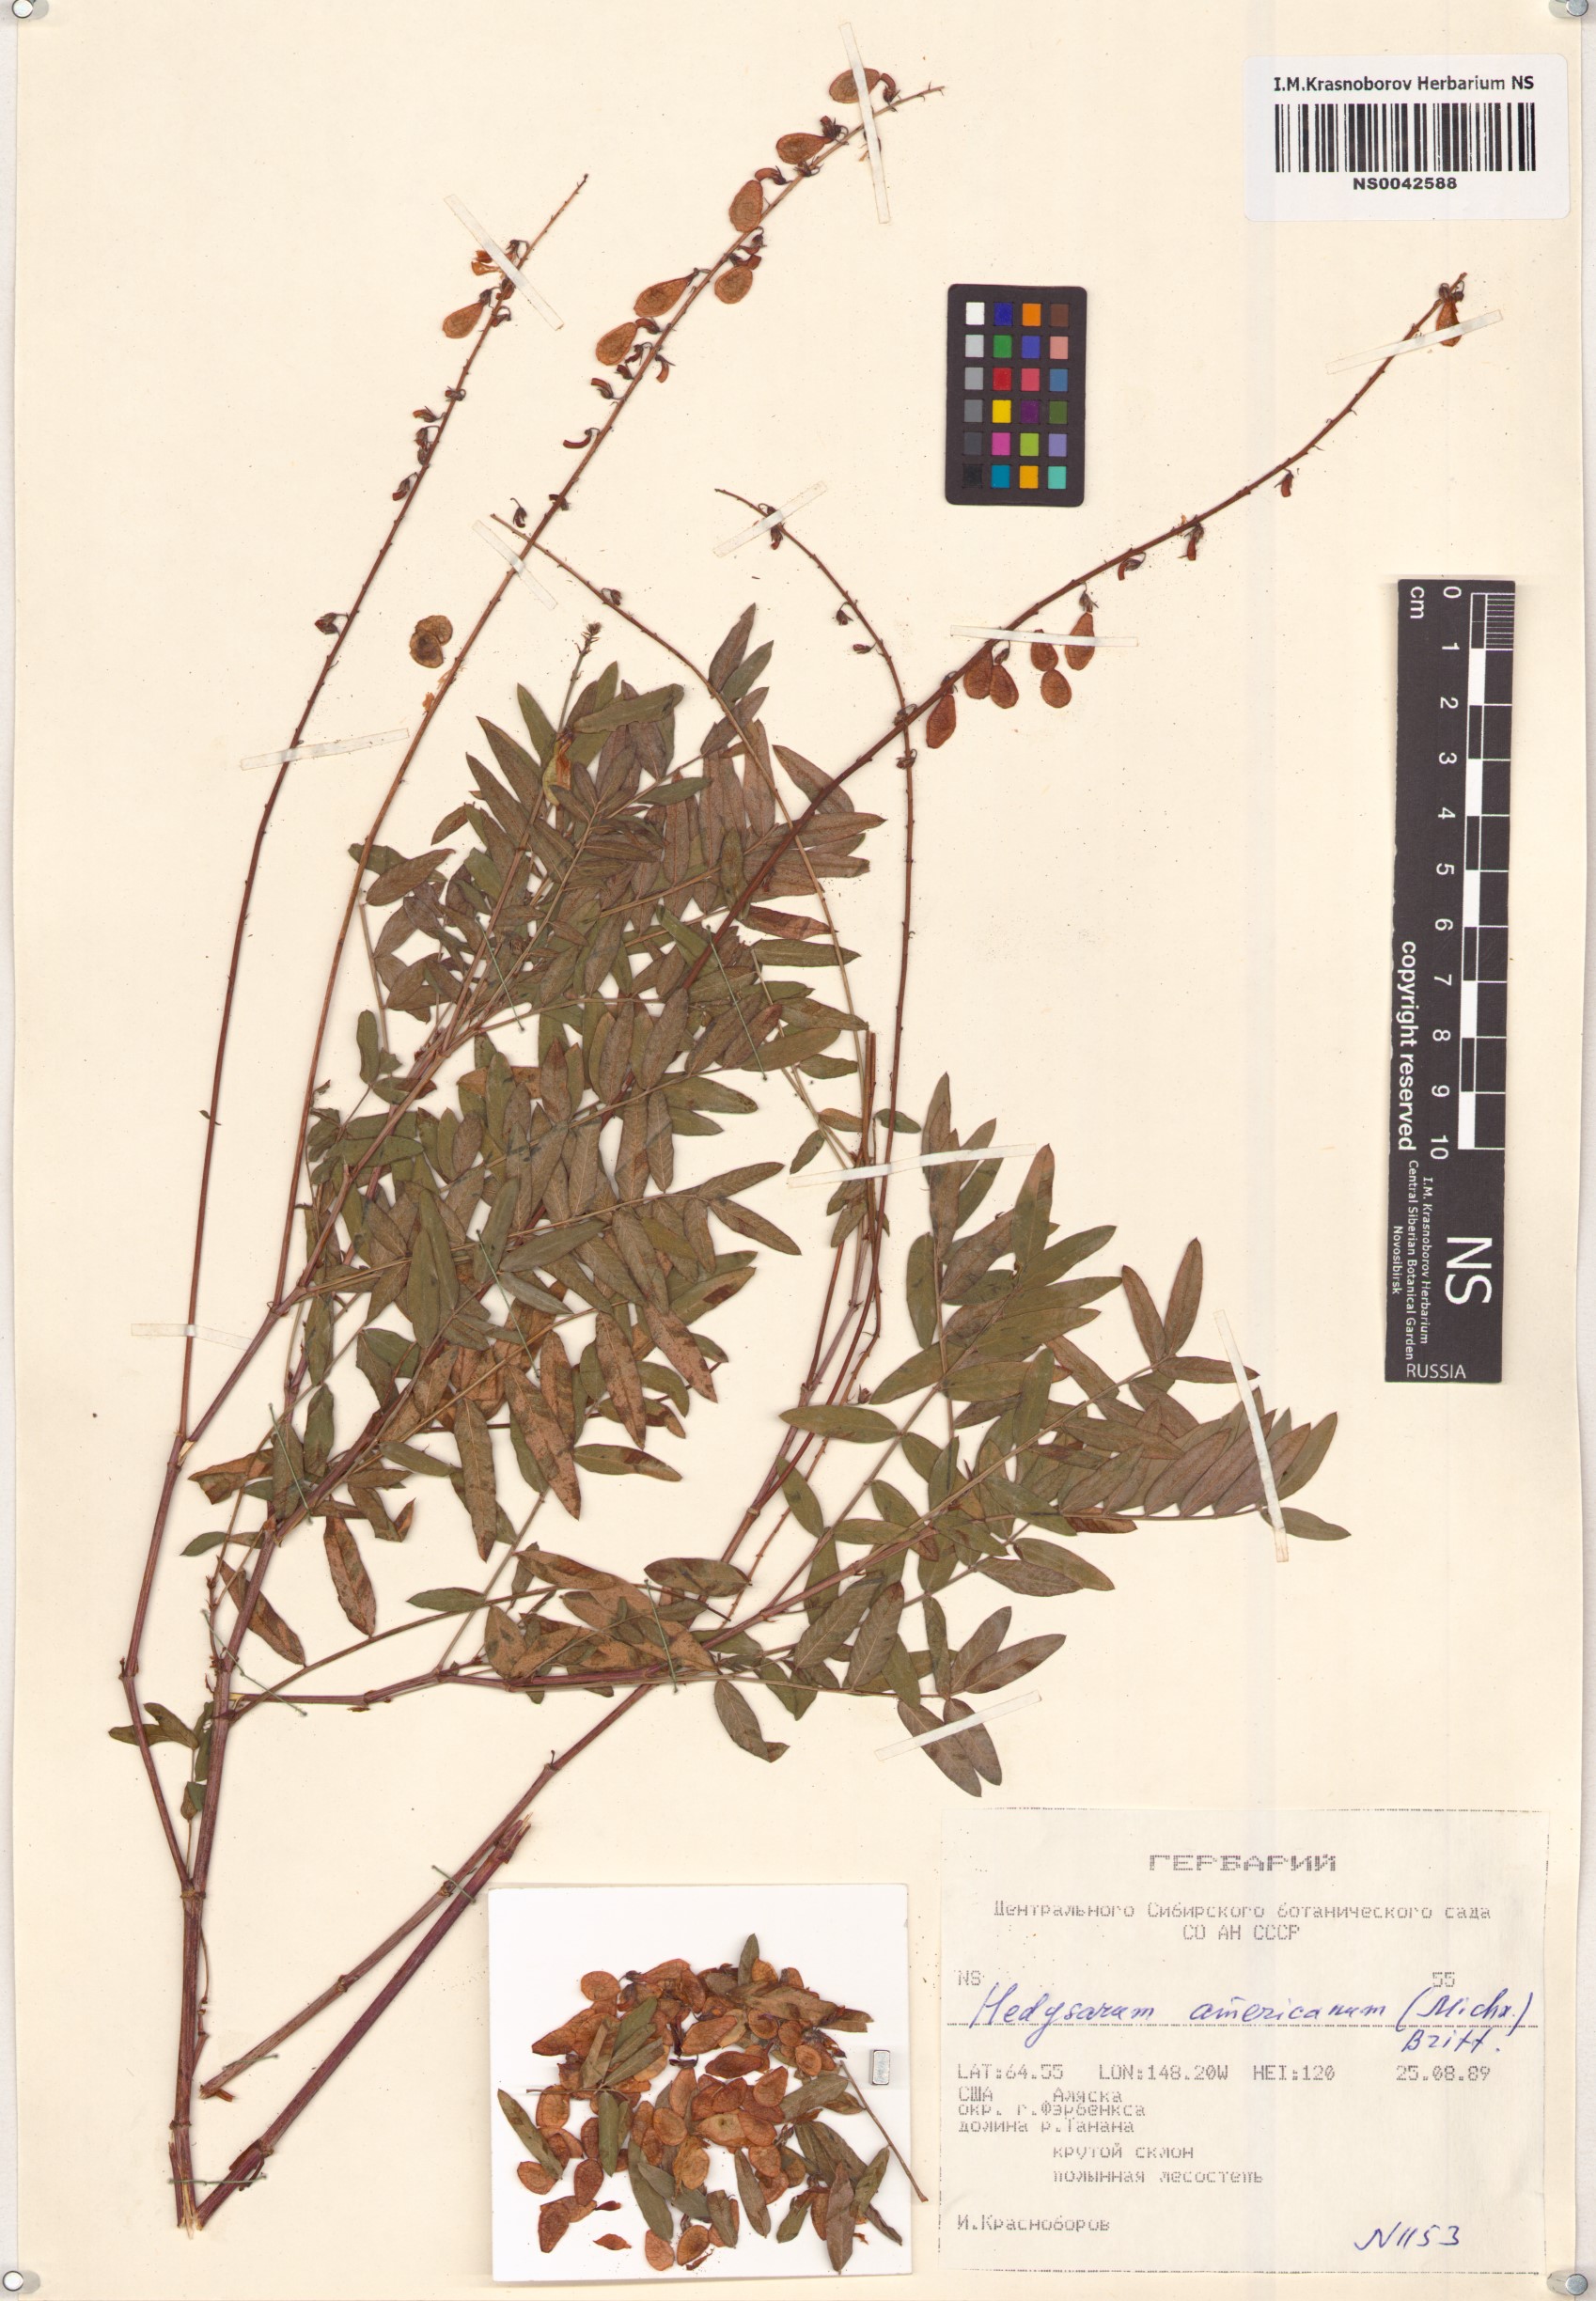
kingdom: Plantae
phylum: Tracheophyta
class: Magnoliopsida
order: Fabales
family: Fabaceae
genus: Hedysarum
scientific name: Hedysarum americanum
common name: Alpine hedysarum
